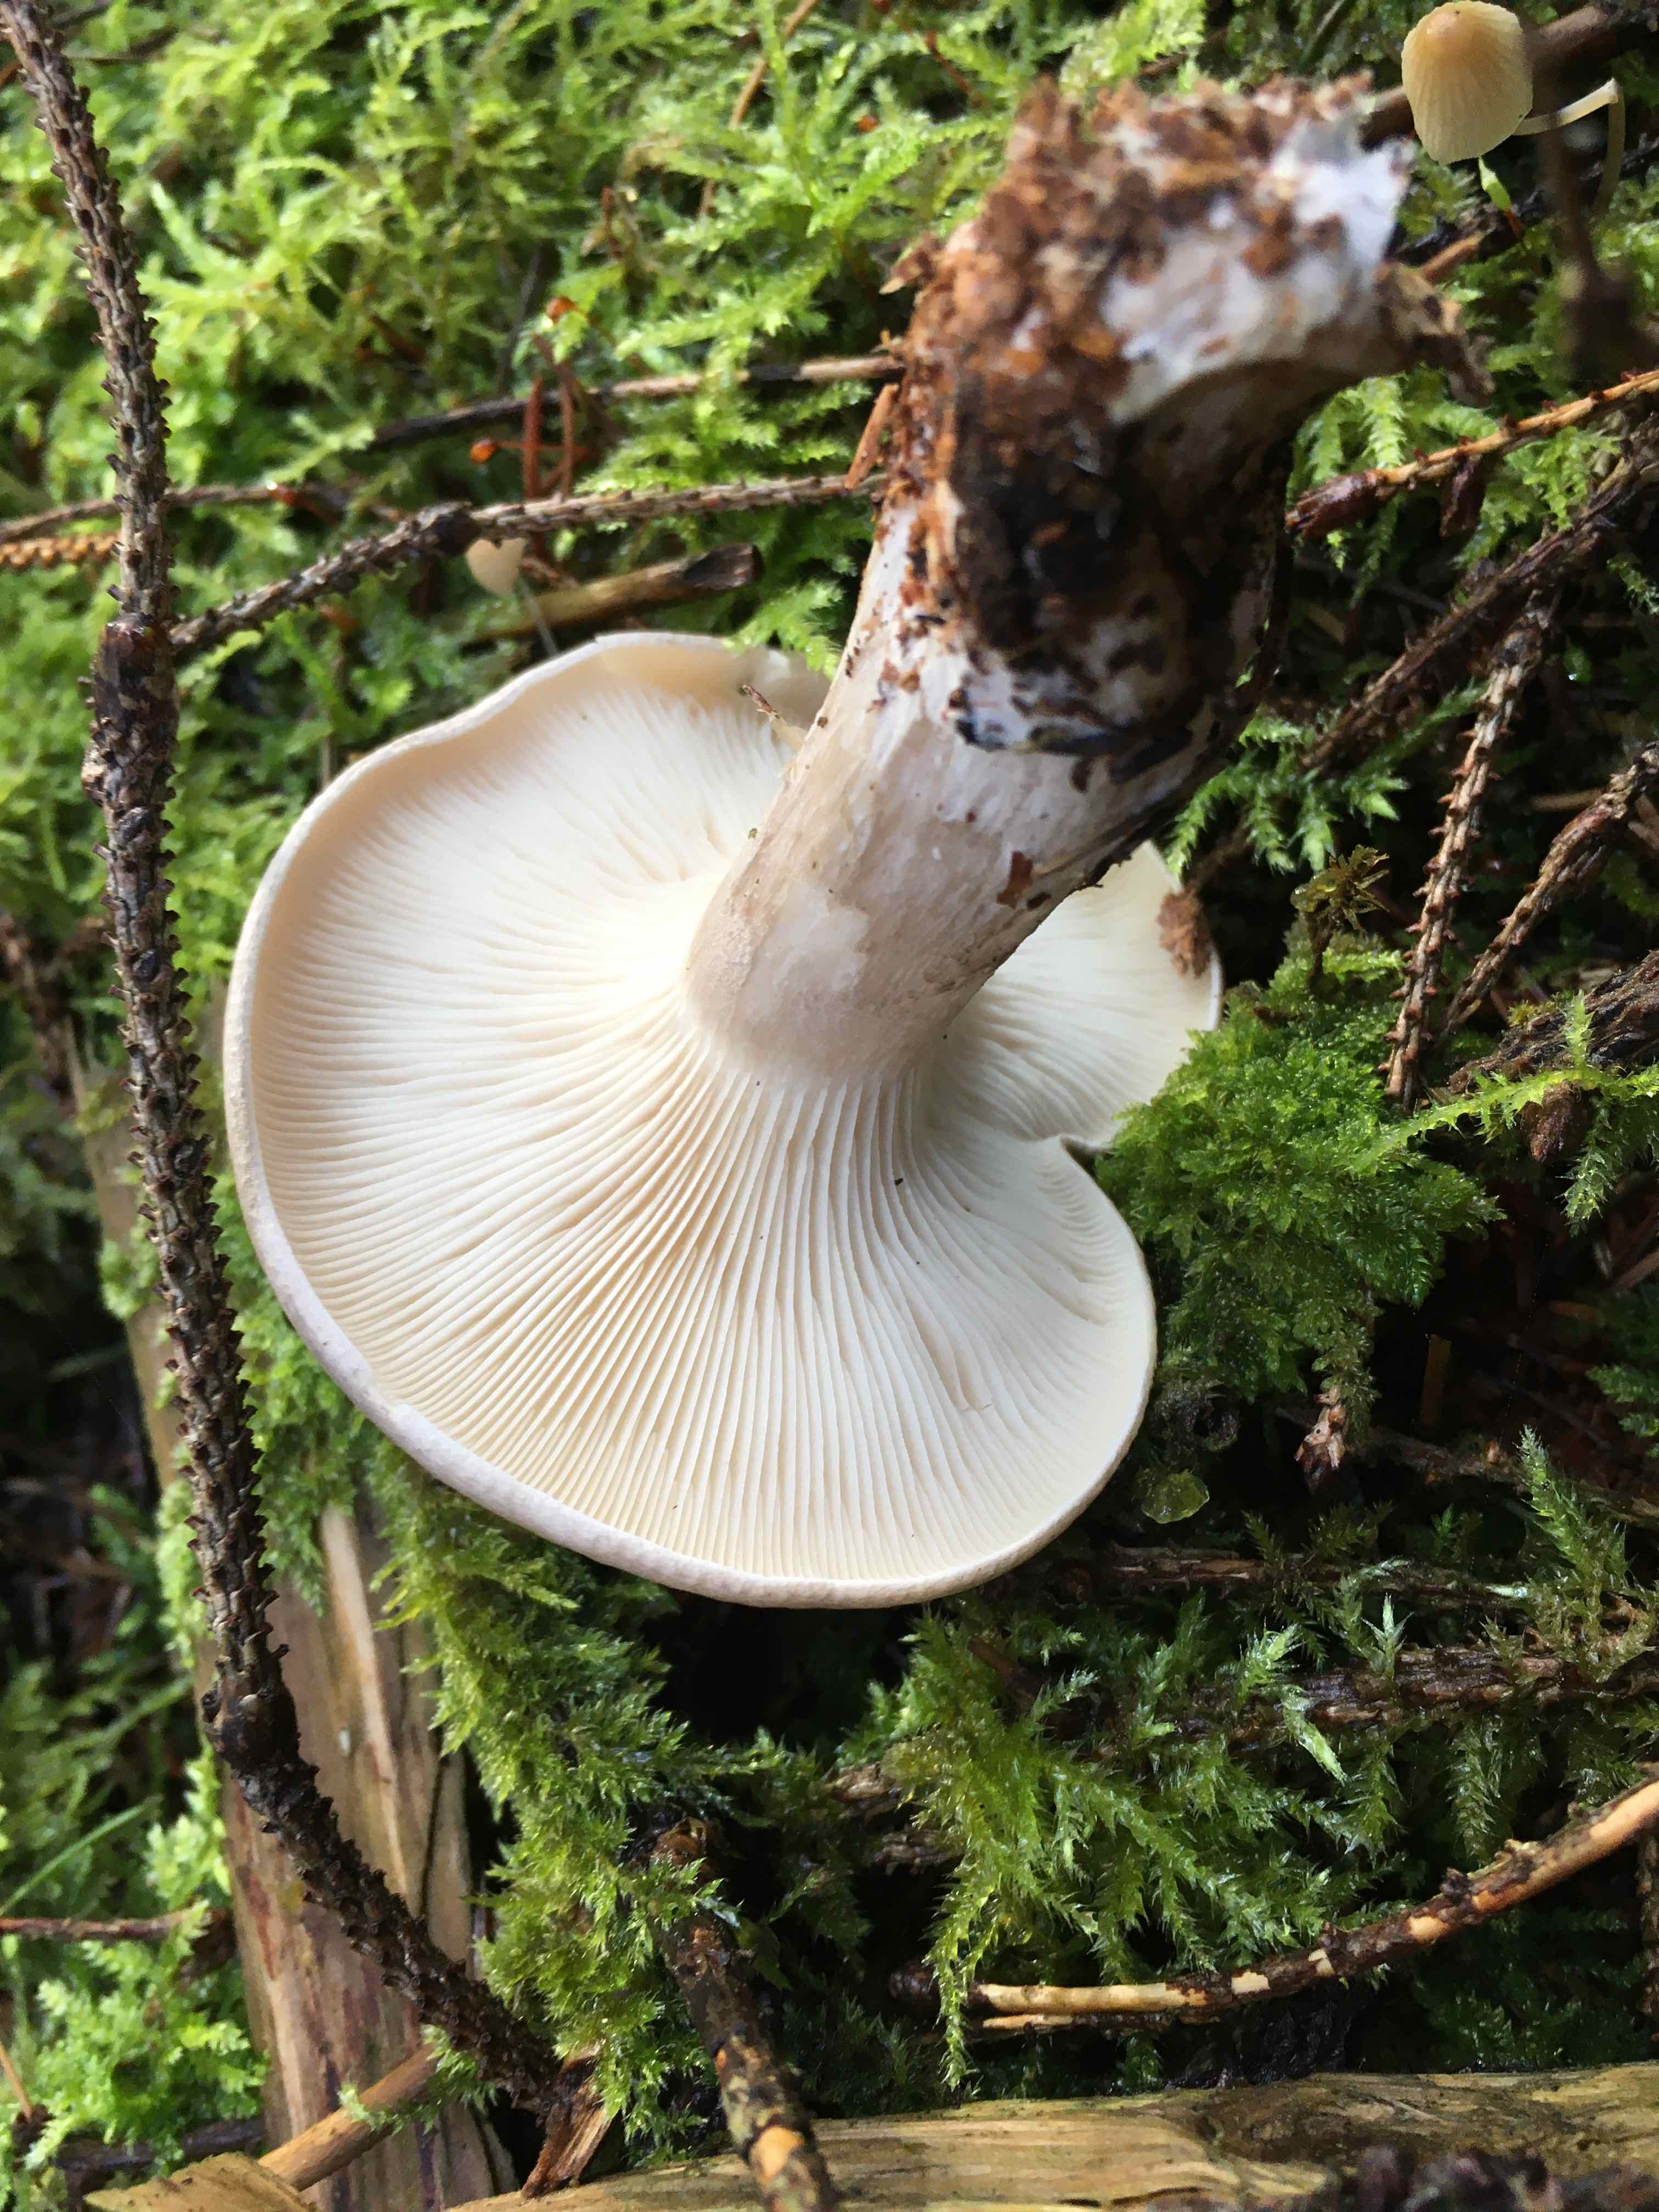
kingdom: Fungi
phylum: Basidiomycota
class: Agaricomycetes
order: Agaricales
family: Tricholomataceae
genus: Clitocybe
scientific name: Clitocybe nebularis
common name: tåge-tragthat
